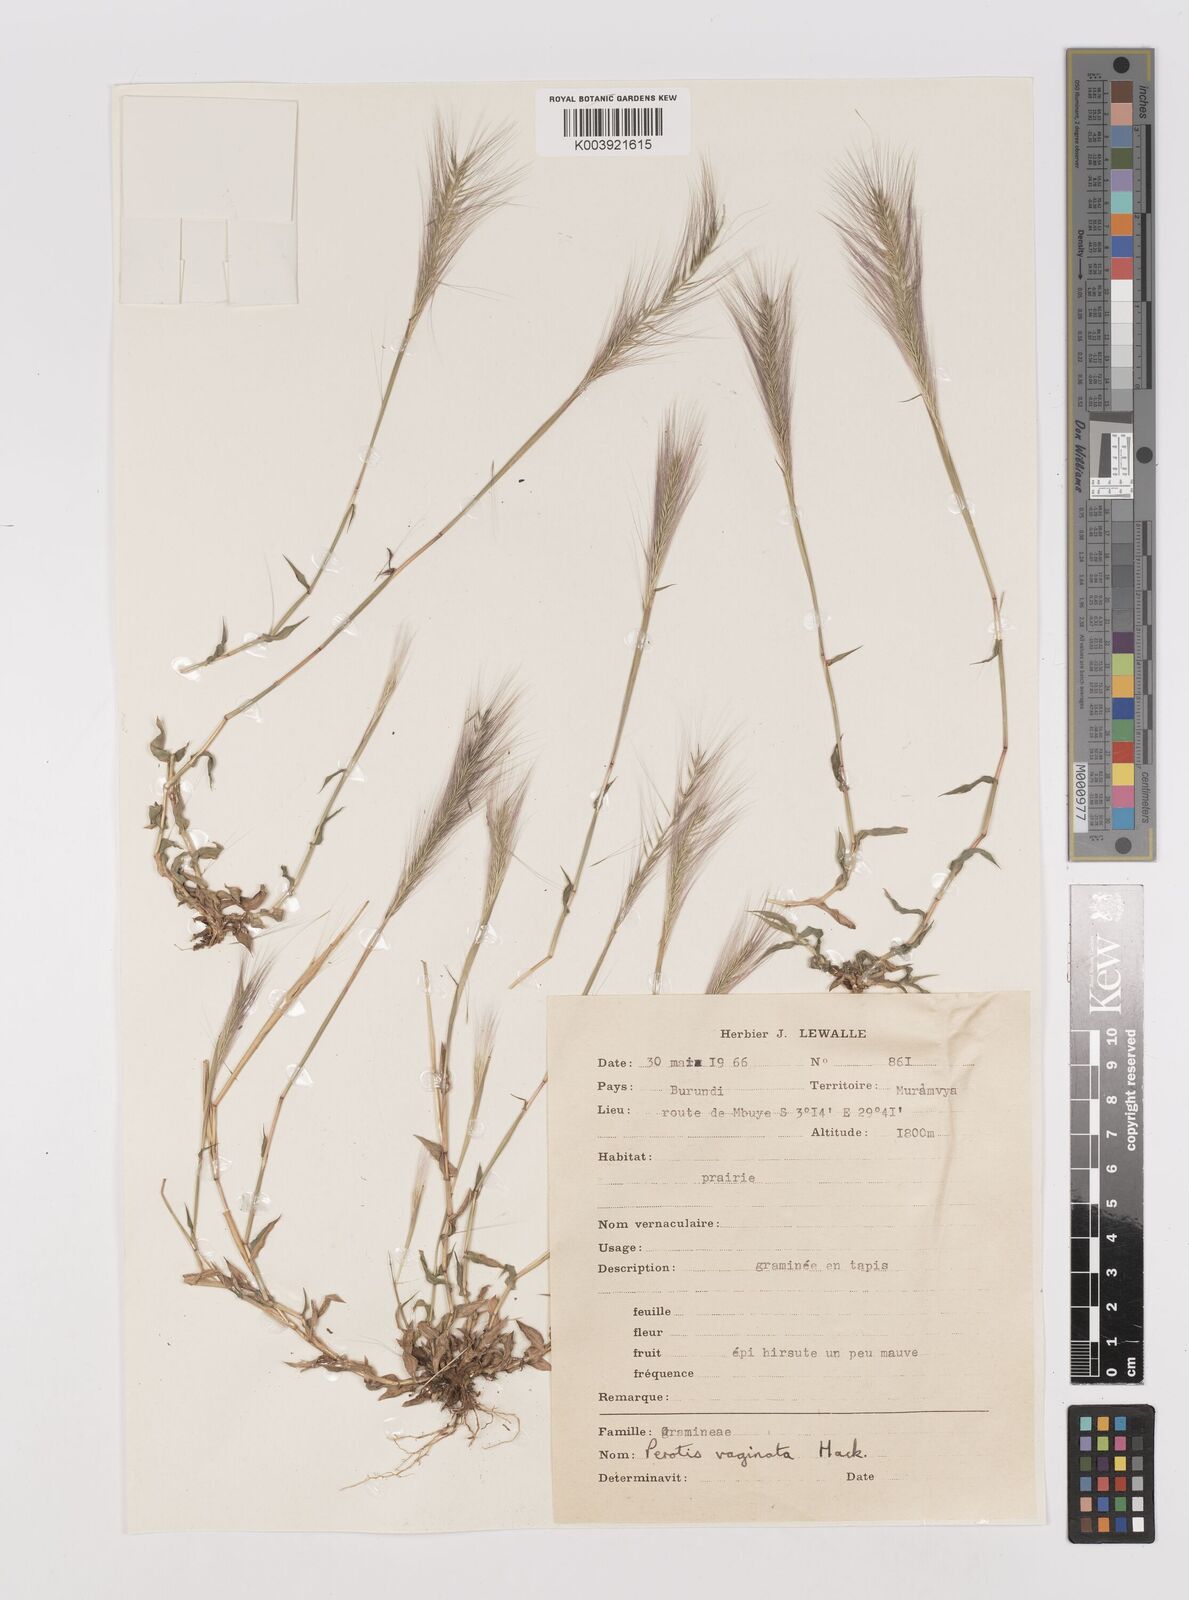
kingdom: Plantae
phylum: Tracheophyta
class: Liliopsida
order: Poales
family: Poaceae
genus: Perotis
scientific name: Perotis
